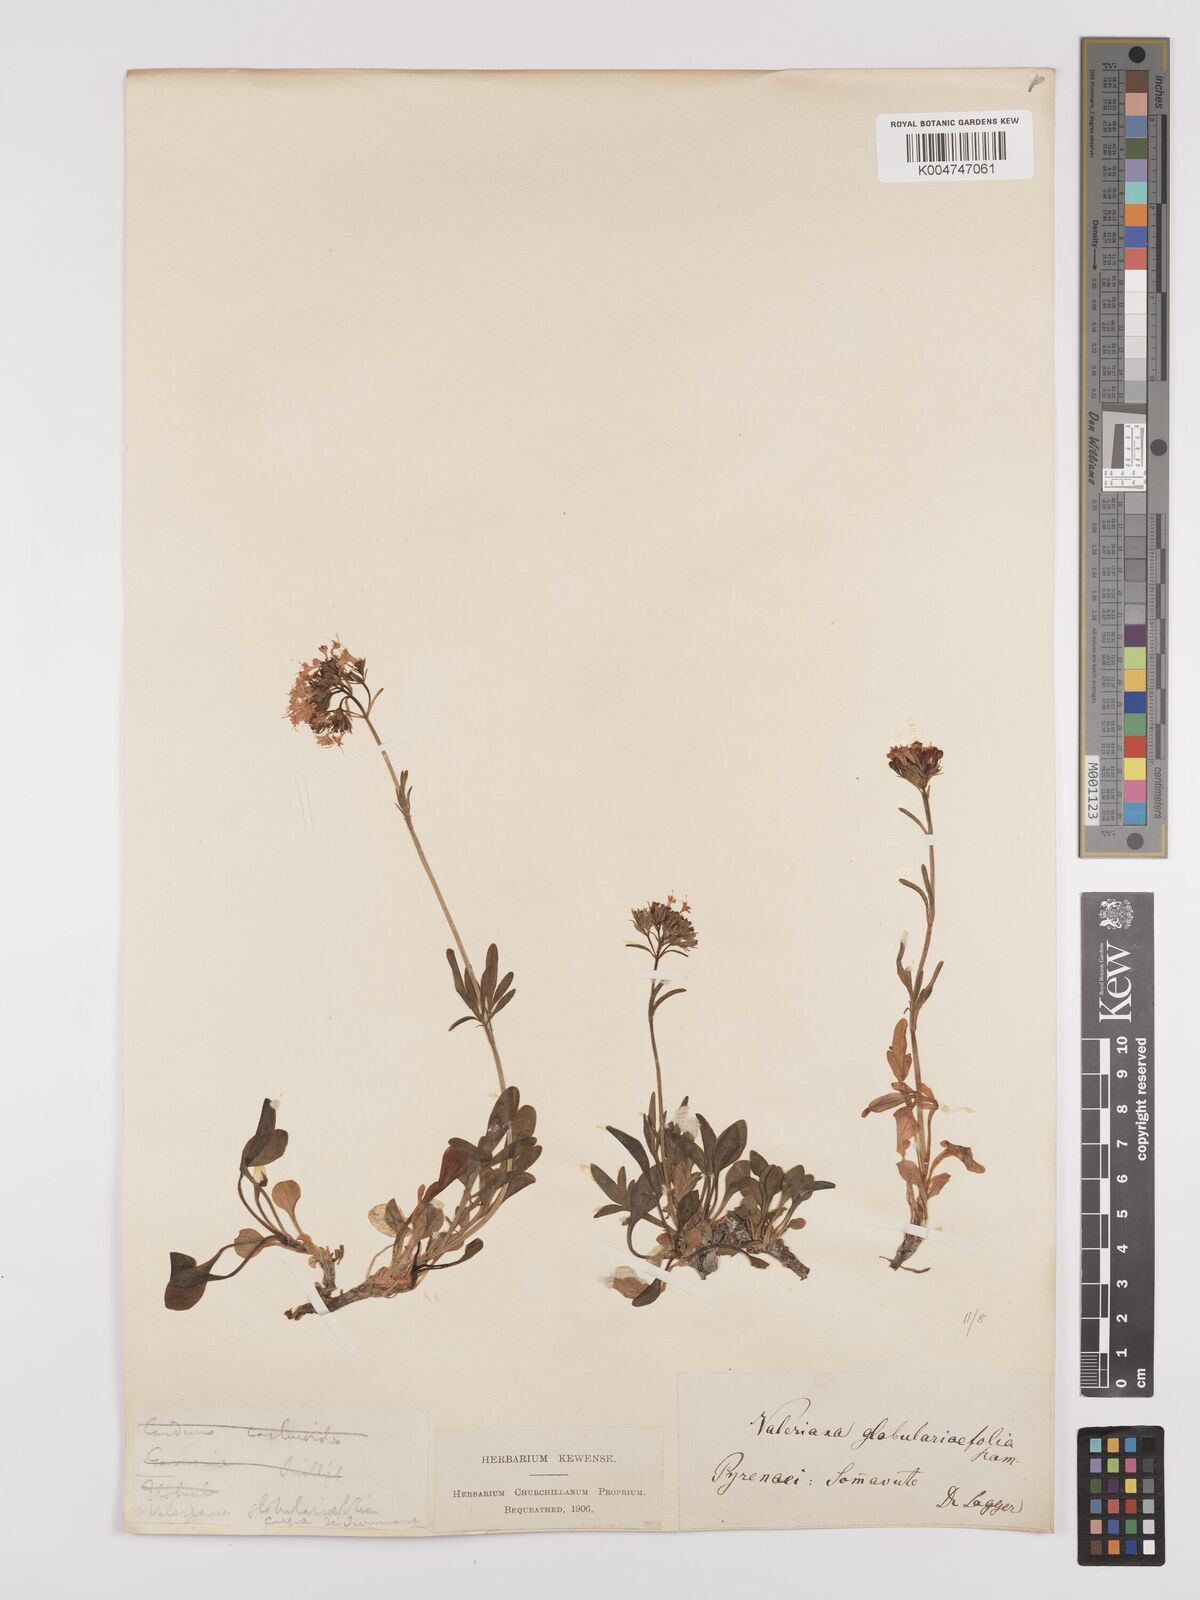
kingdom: Plantae
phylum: Tracheophyta
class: Magnoliopsida
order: Dipsacales
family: Caprifoliaceae
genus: Valeriana
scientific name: Valeriana apula
